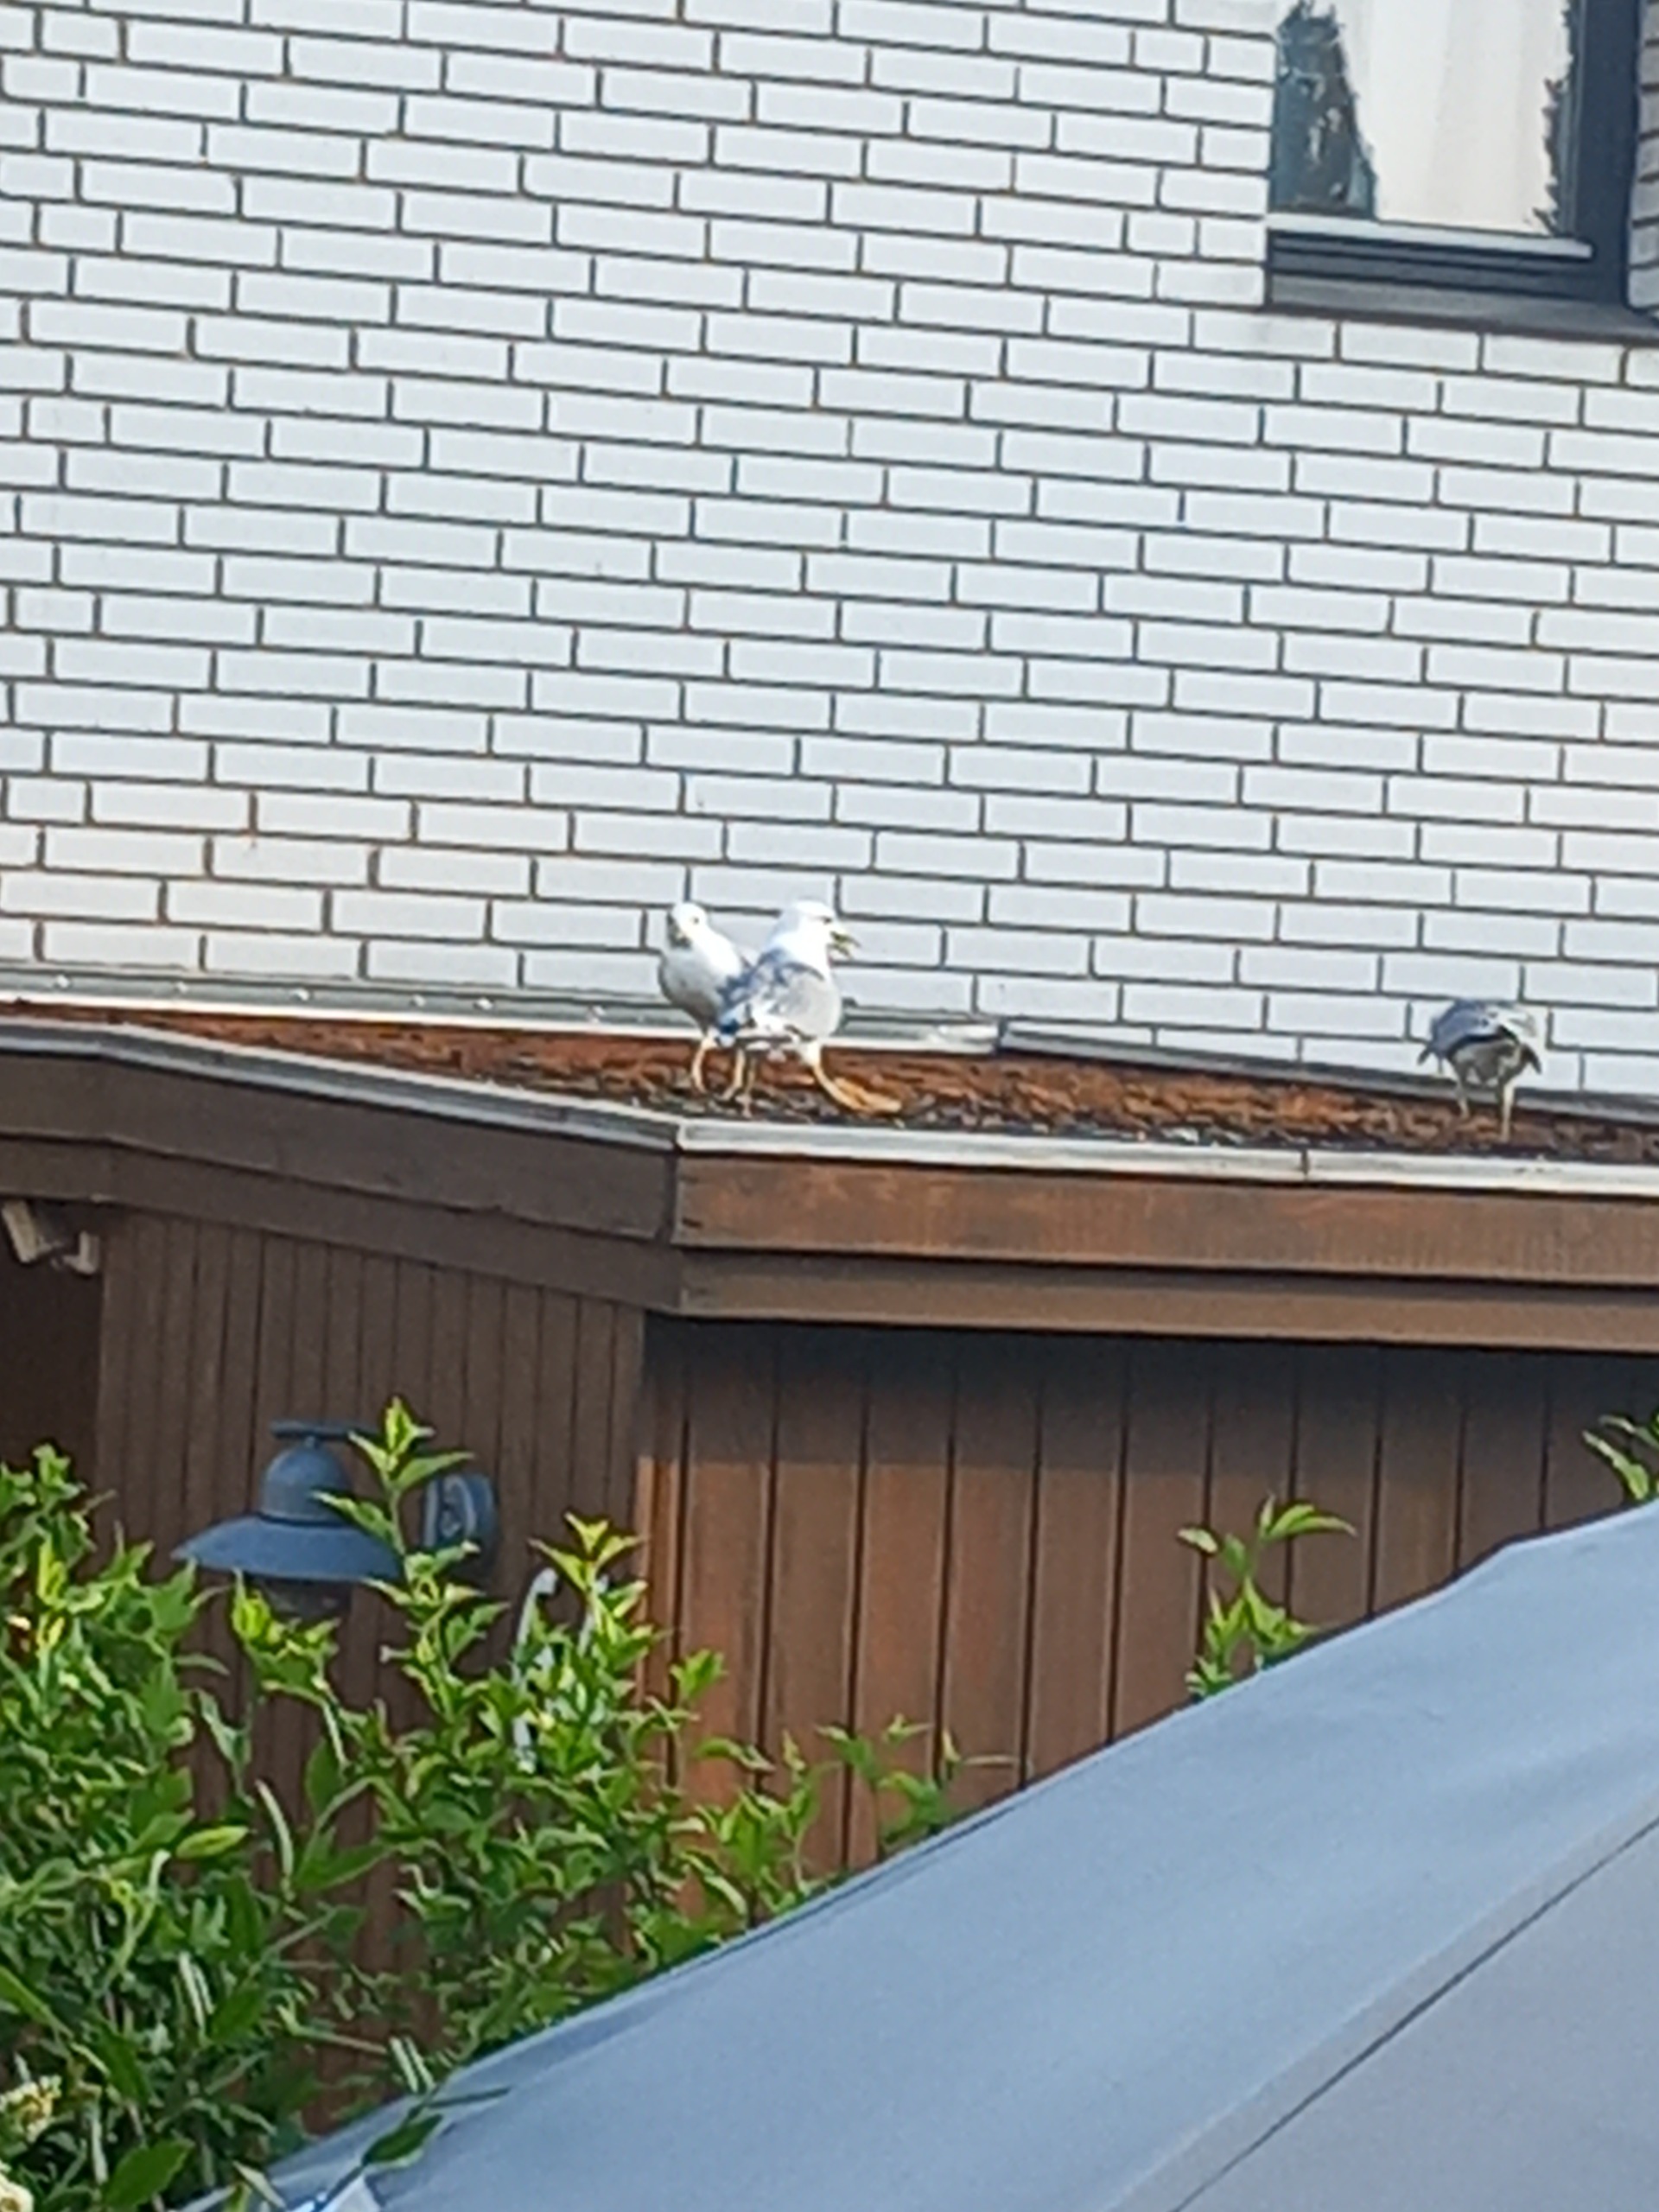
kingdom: Animalia
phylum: Chordata
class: Aves
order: Charadriiformes
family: Laridae
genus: Larus
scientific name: Larus canus
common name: Stormmåge
